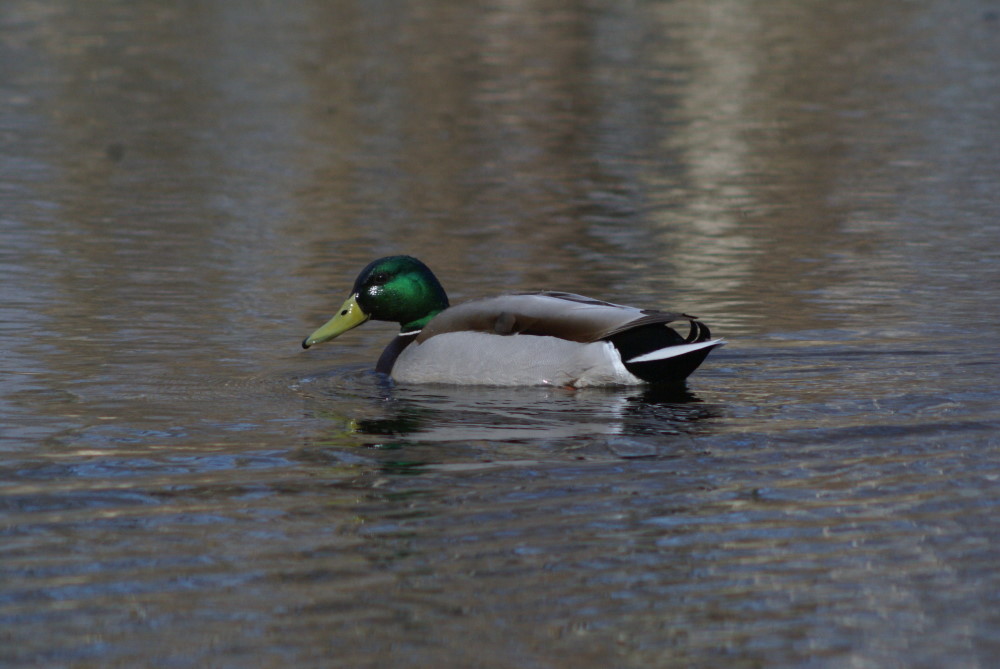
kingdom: Animalia
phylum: Chordata
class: Aves
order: Anseriformes
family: Anatidae
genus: Anas
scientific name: Anas platyrhynchos
